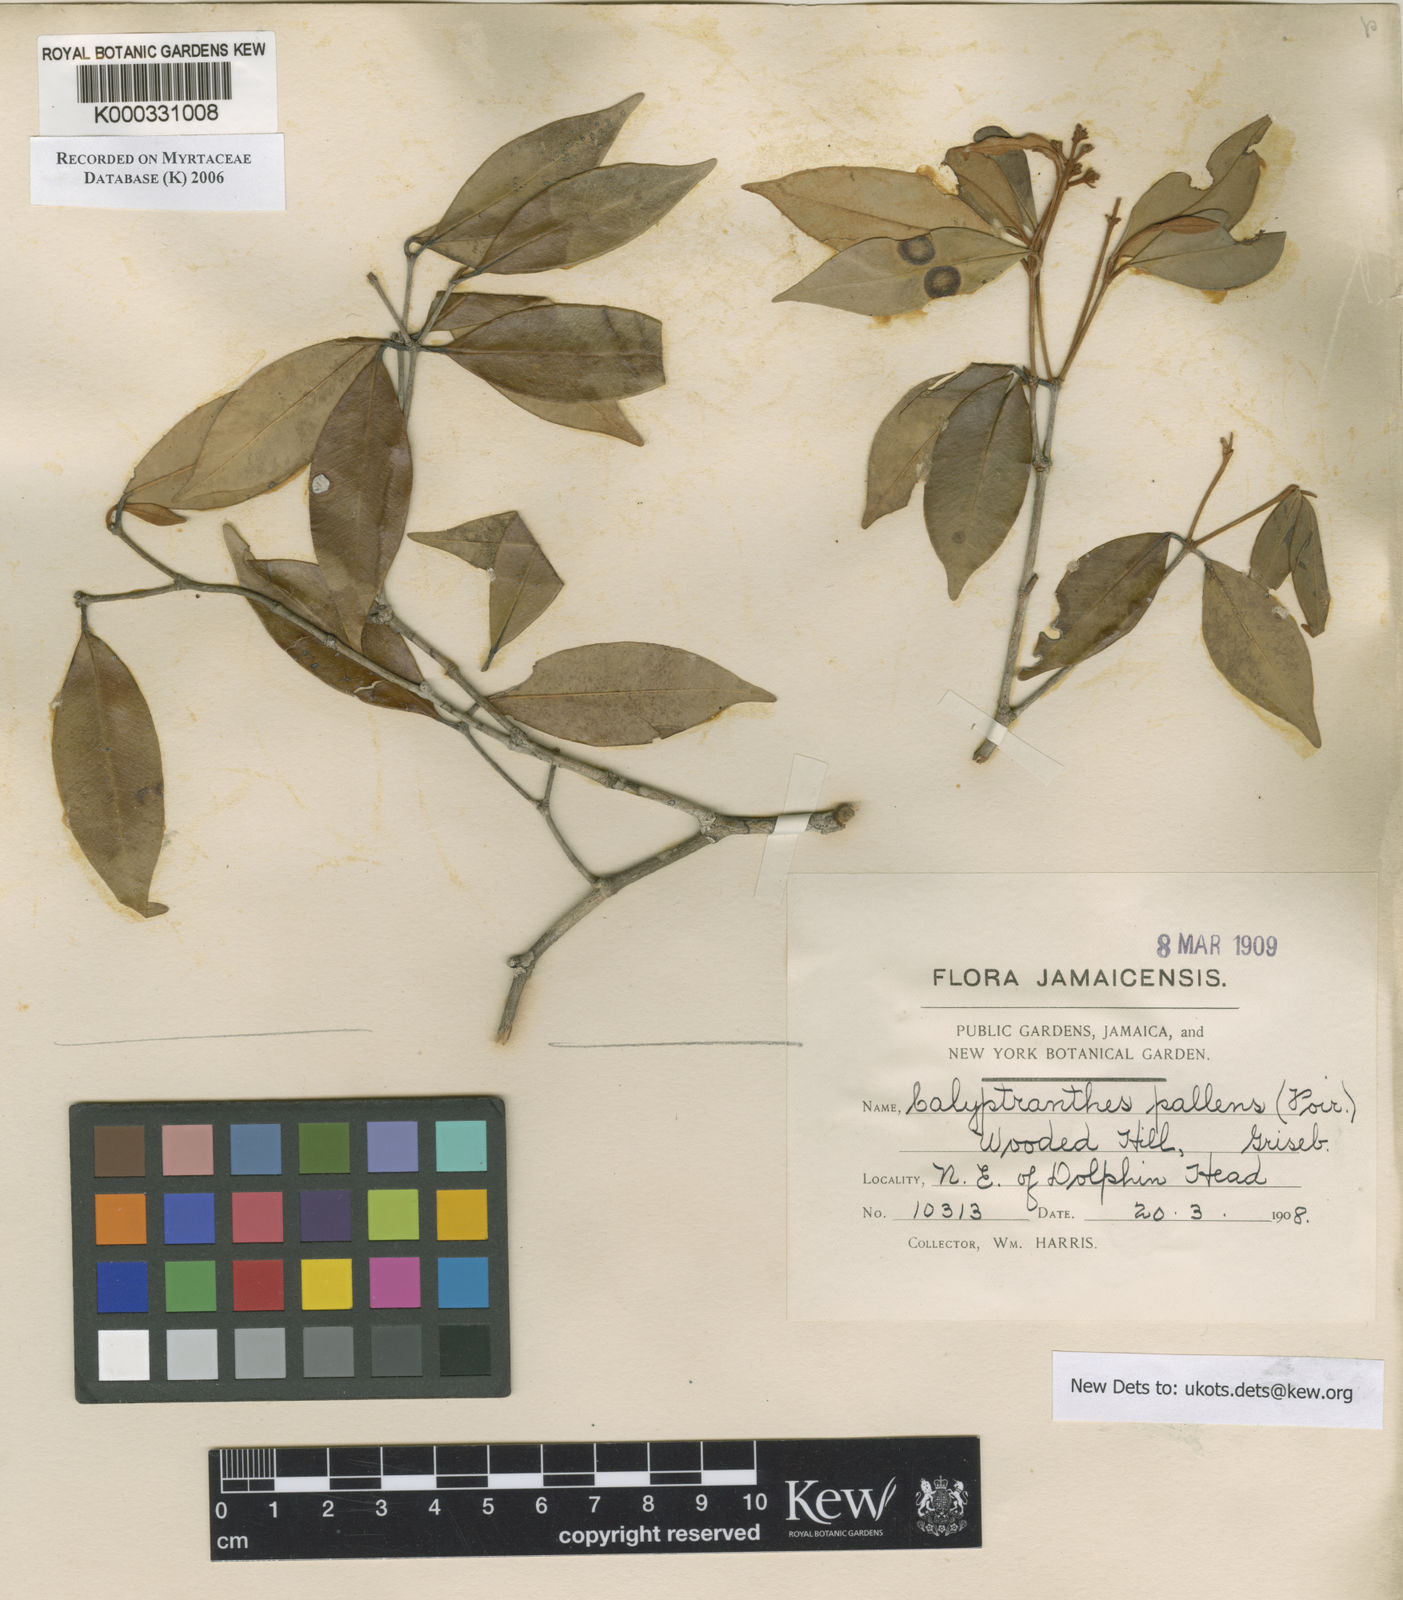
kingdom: Plantae
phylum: Tracheophyta
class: Magnoliopsida
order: Myrtales
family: Myrtaceae
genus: Myrcia
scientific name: Myrcia neopallens
